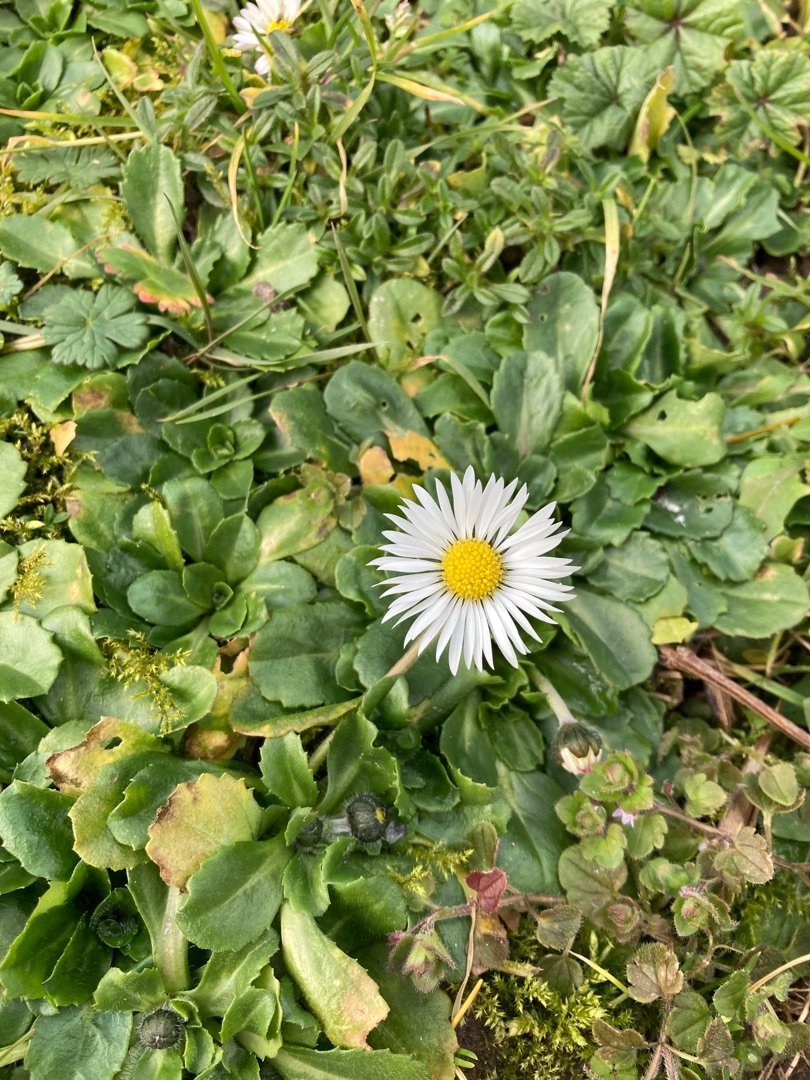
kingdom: Plantae
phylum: Tracheophyta
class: Magnoliopsida
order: Asterales
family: Asteraceae
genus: Bellis
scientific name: Bellis perennis
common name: Tusindfryd
